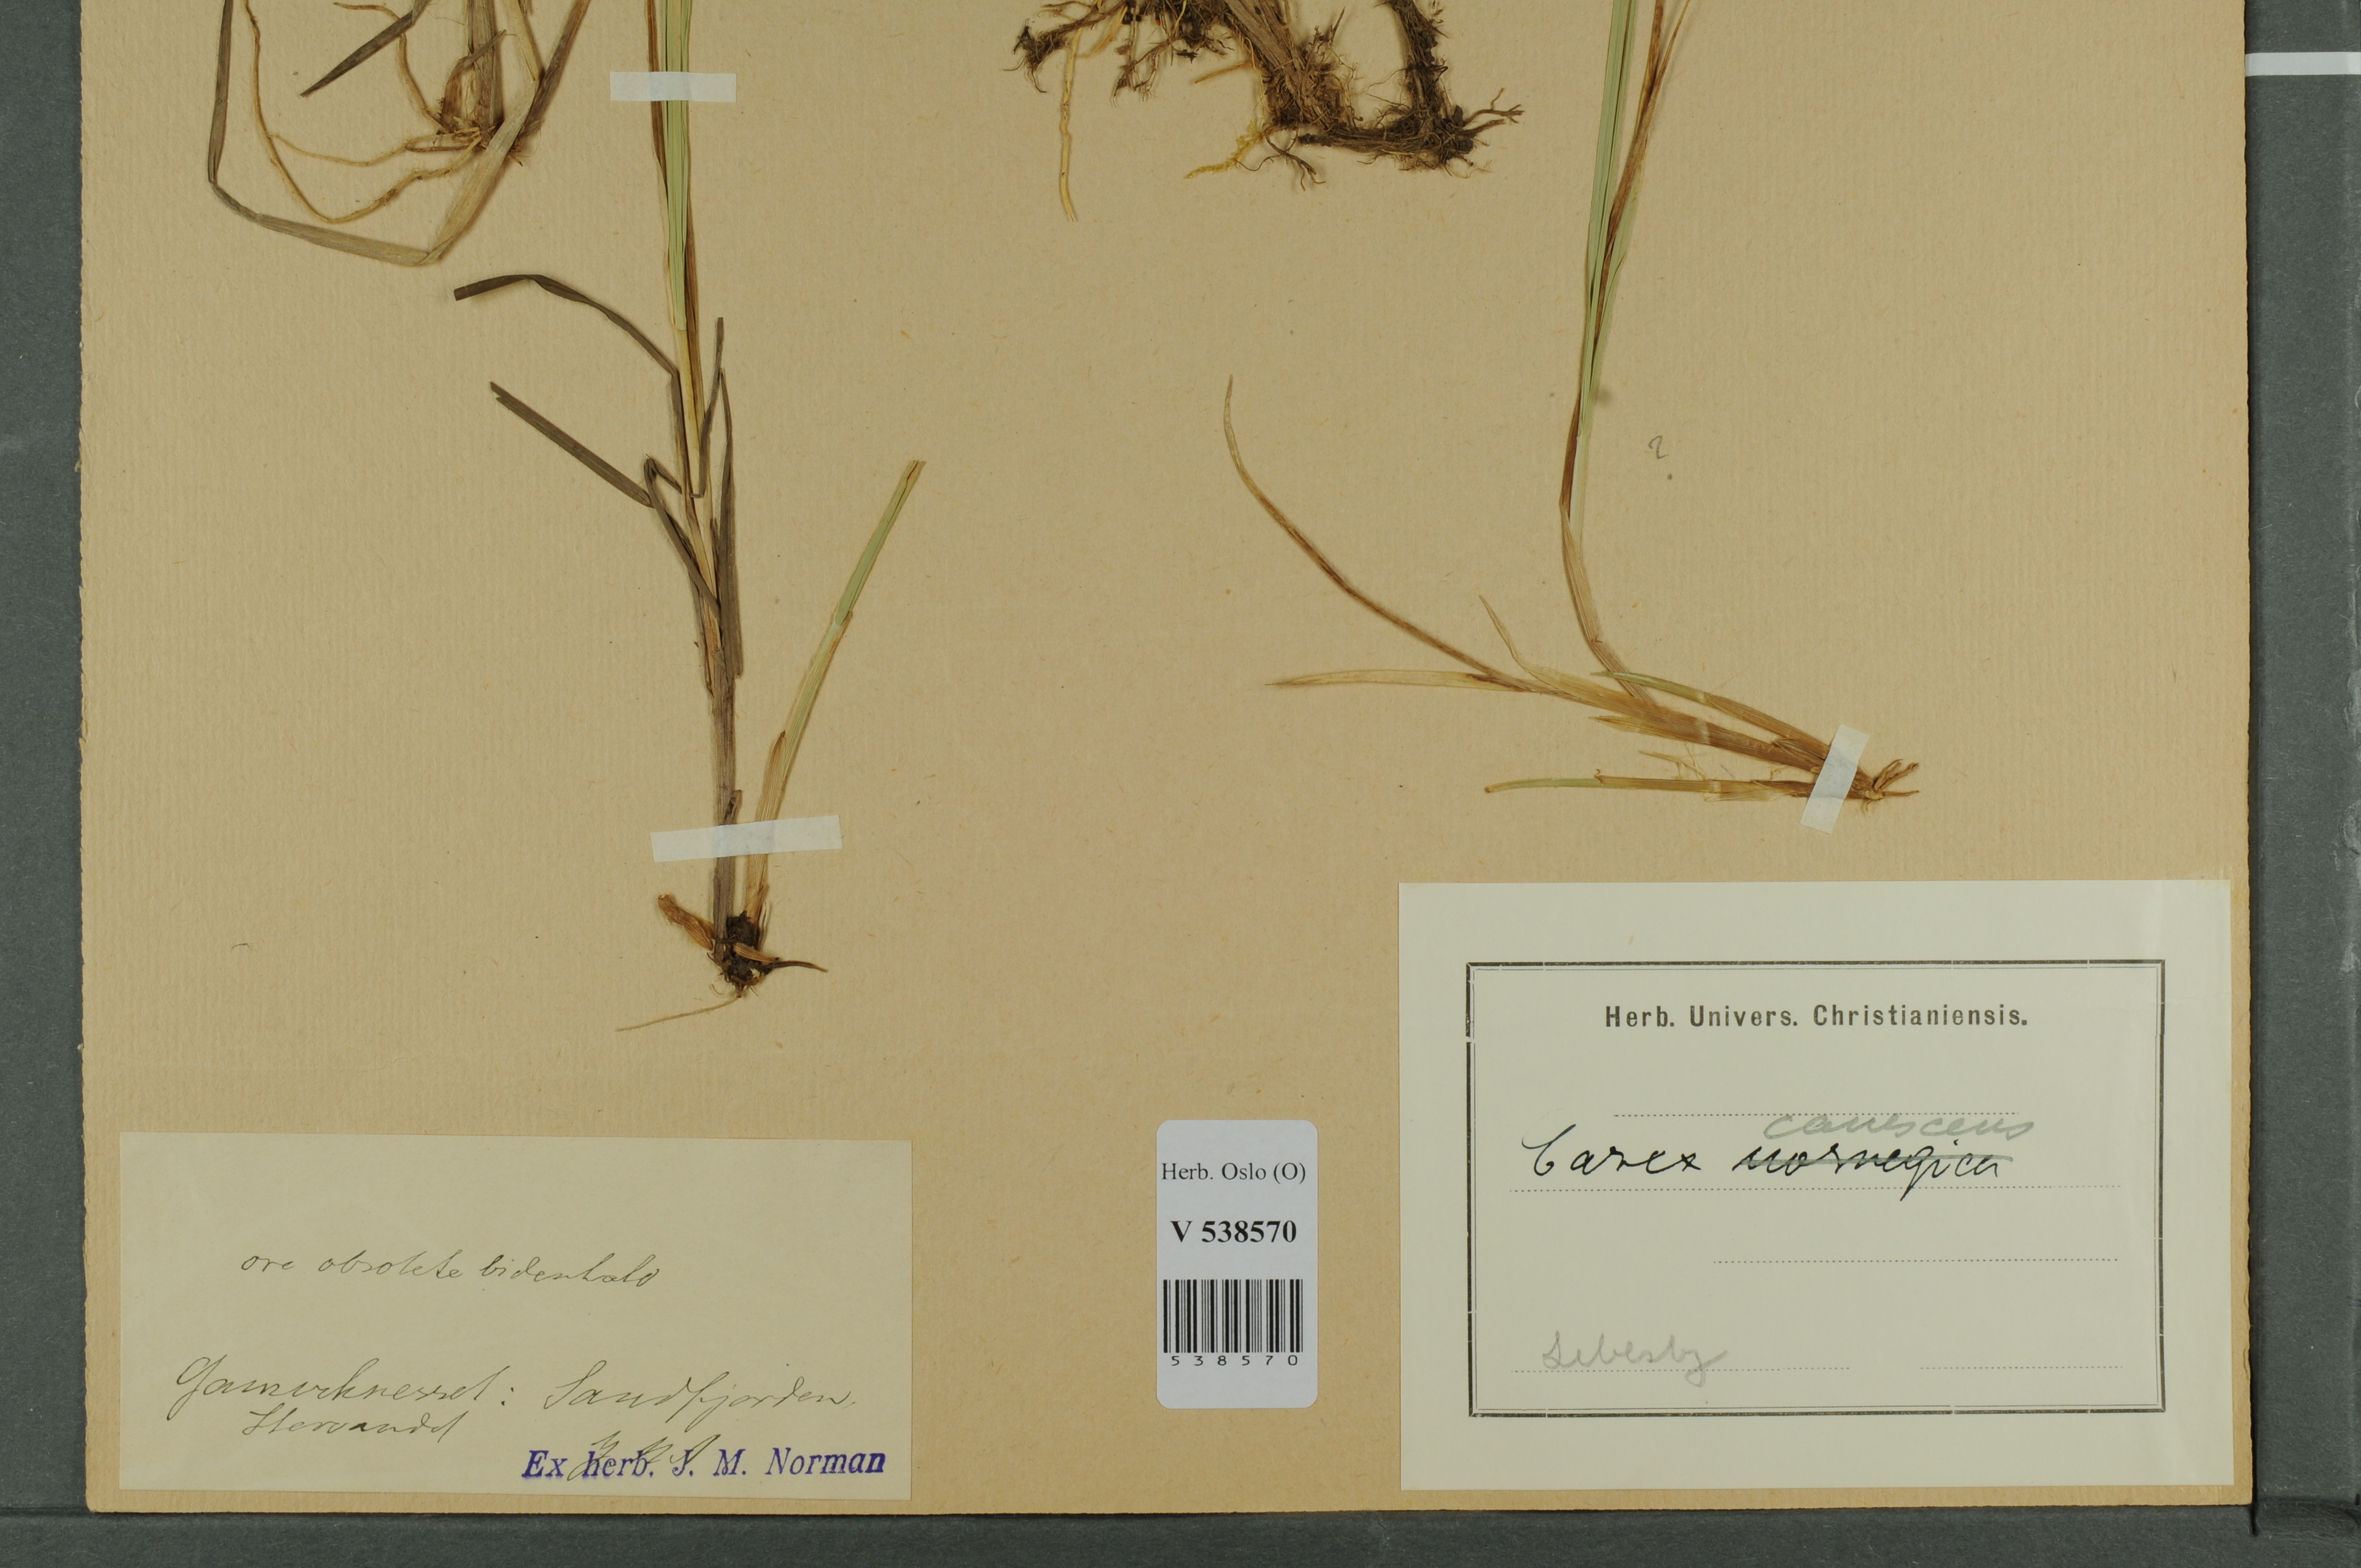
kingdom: Plantae
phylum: Tracheophyta
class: Liliopsida
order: Poales
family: Cyperaceae
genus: Carex
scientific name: Carex canescens
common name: White sedge
